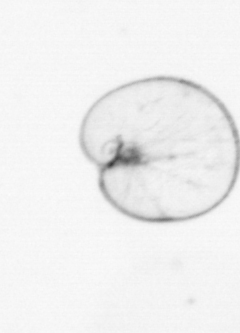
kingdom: Chromista
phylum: Myzozoa
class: Dinophyceae
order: Noctilucales
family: Noctilucaceae
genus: Noctiluca
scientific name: Noctiluca scintillans
